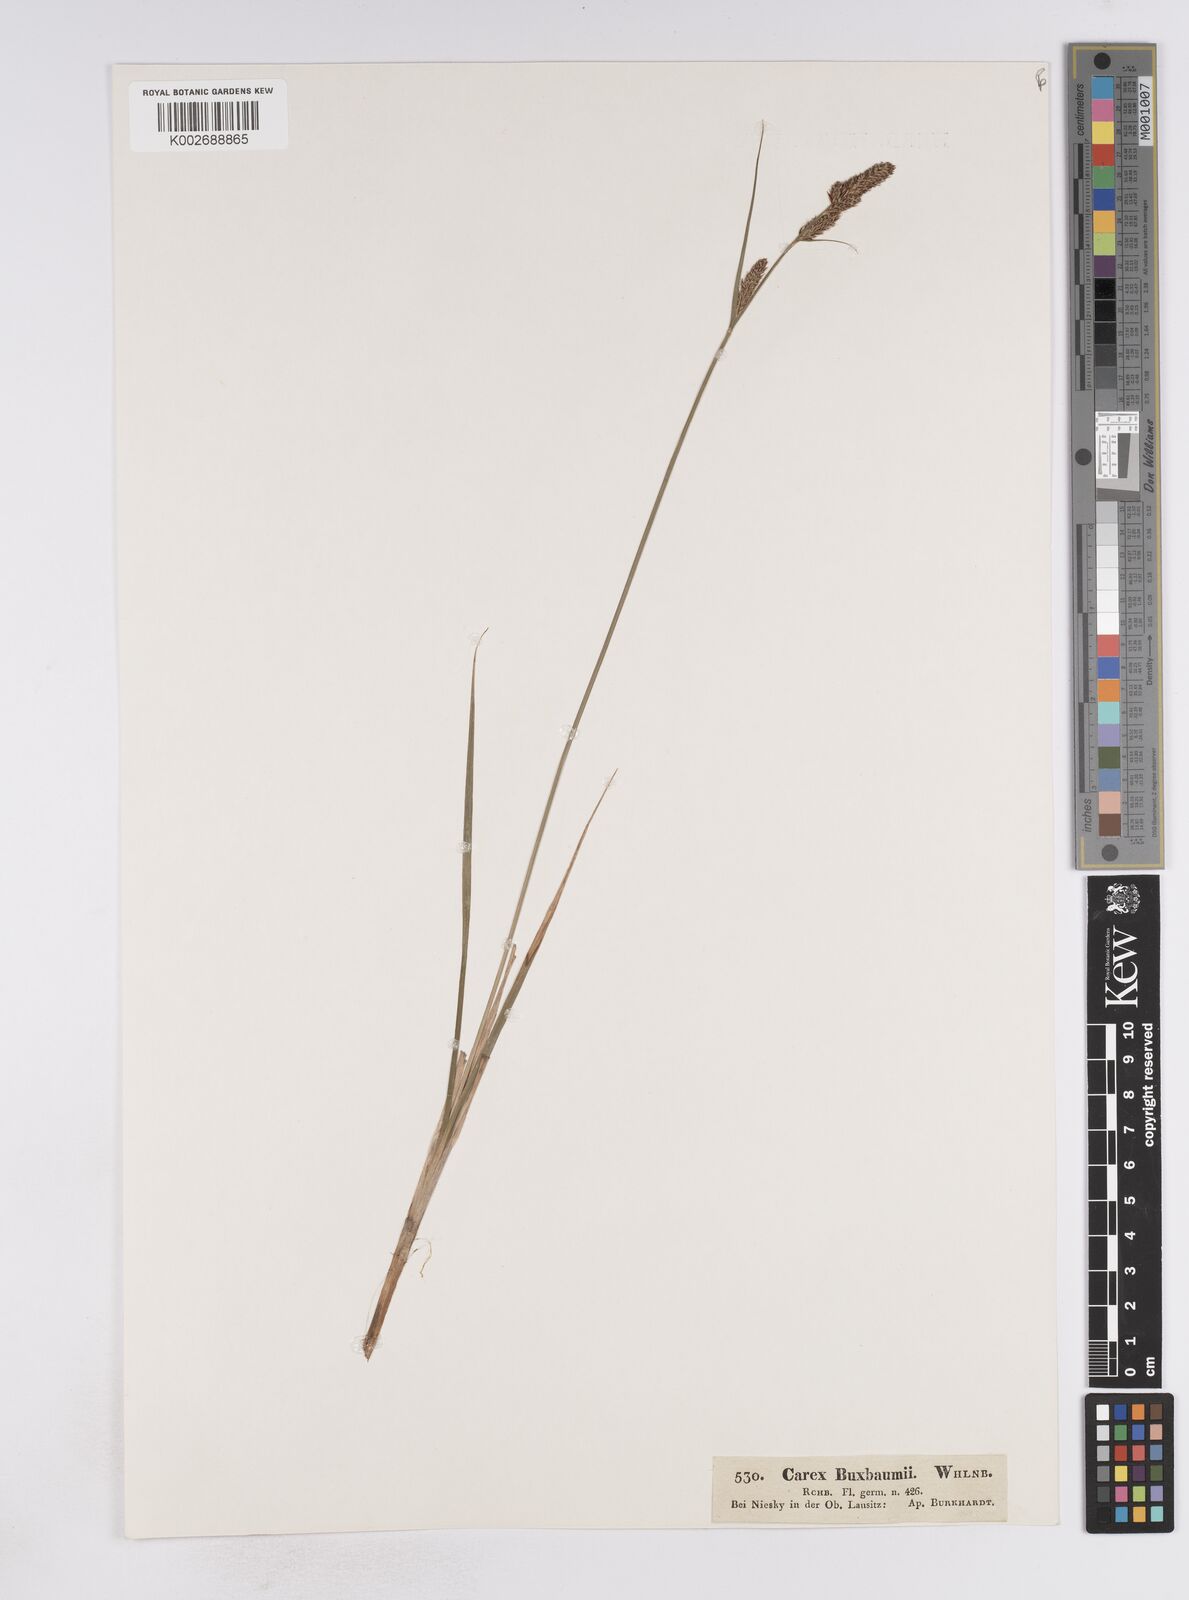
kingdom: Plantae
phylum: Tracheophyta
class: Liliopsida
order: Poales
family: Cyperaceae
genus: Carex
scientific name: Carex buxbaumii
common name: Club sedge
